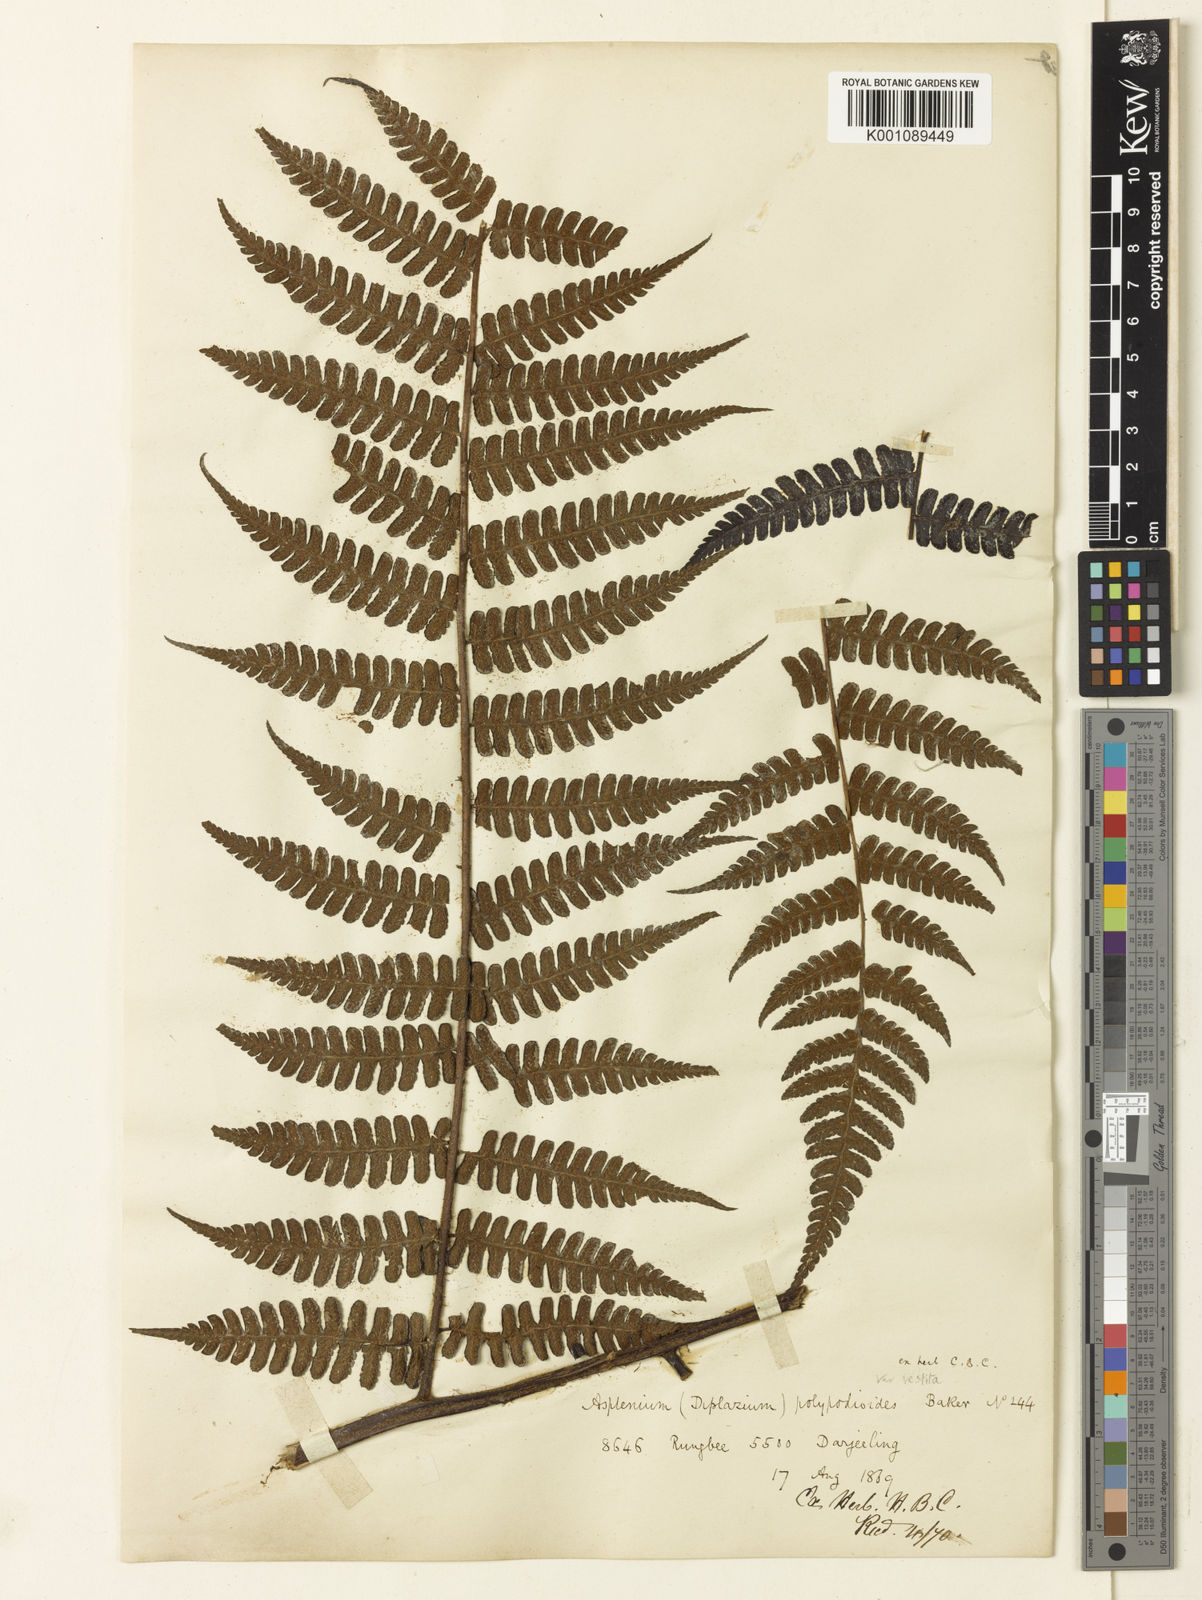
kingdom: Plantae
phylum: Tracheophyta
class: Polypodiopsida
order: Polypodiales
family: Athyriaceae
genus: Diplazium
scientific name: Diplazium himalayense
